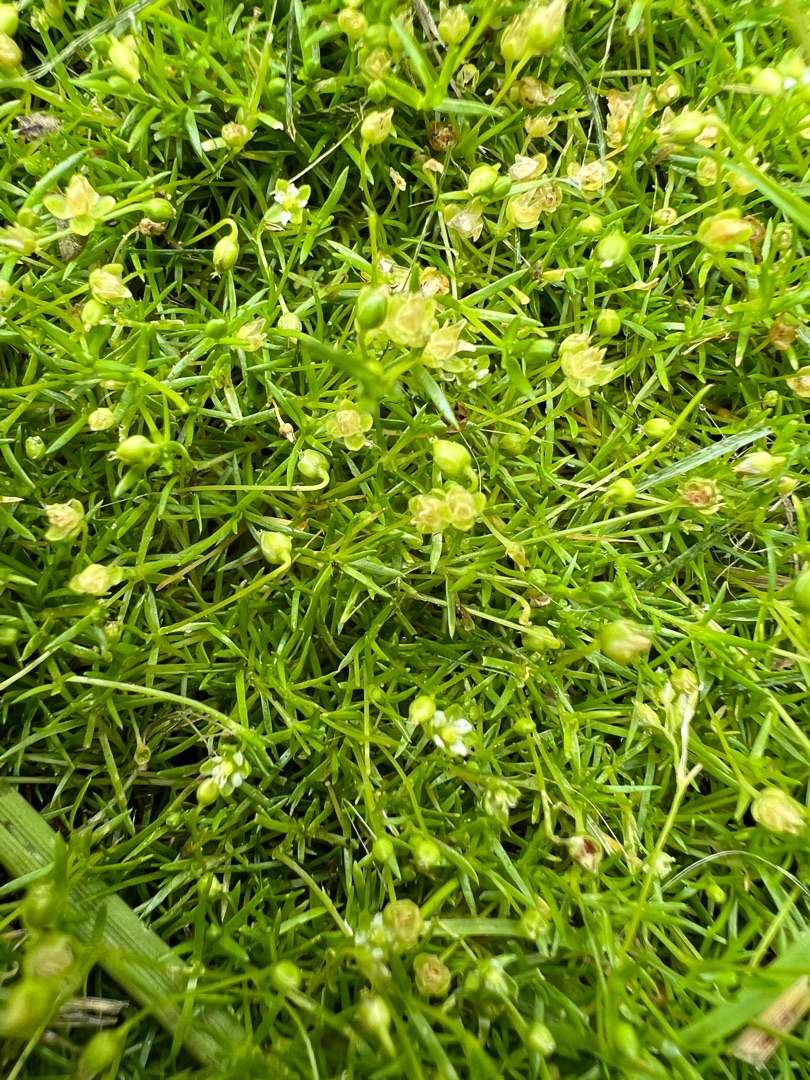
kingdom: Plantae
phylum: Tracheophyta
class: Magnoliopsida
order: Caryophyllales
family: Caryophyllaceae
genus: Sagina
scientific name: Sagina procumbens
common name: Almindelig firling
